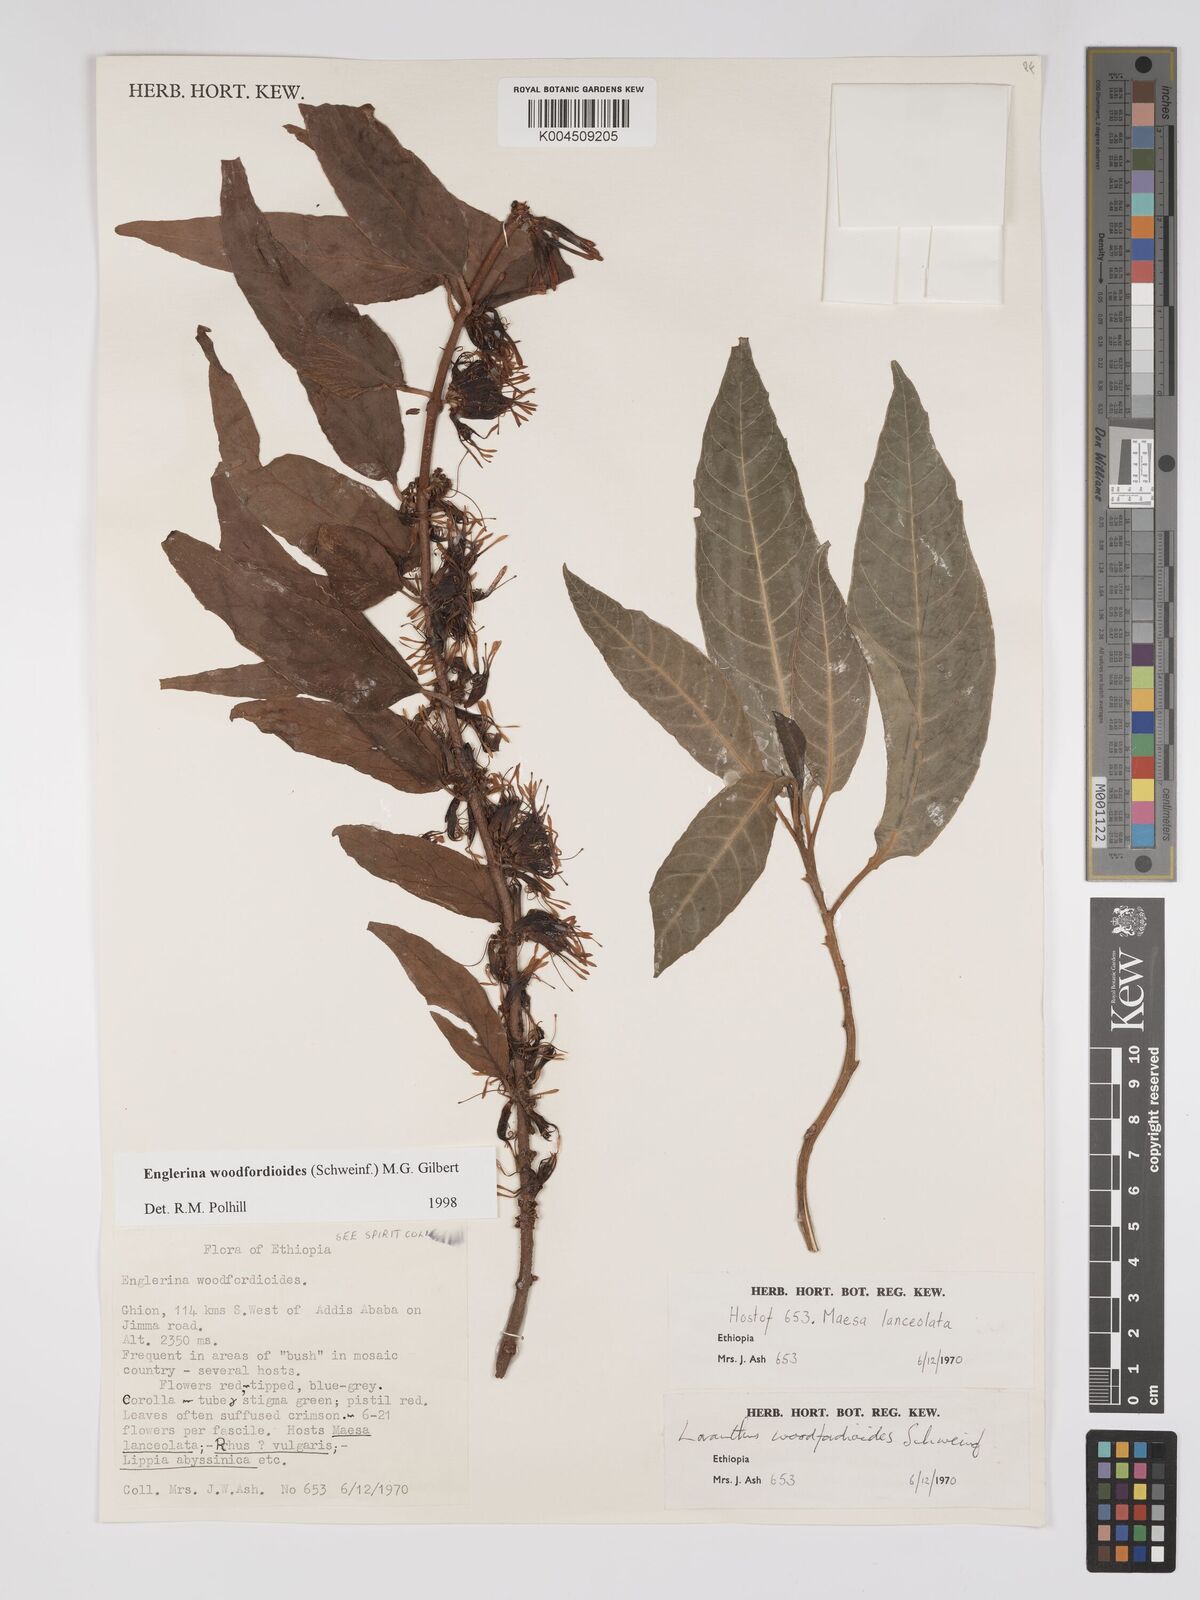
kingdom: Plantae
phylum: Tracheophyta
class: Magnoliopsida
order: Santalales
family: Loranthaceae
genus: Englerina
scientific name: Englerina woodfordioides
